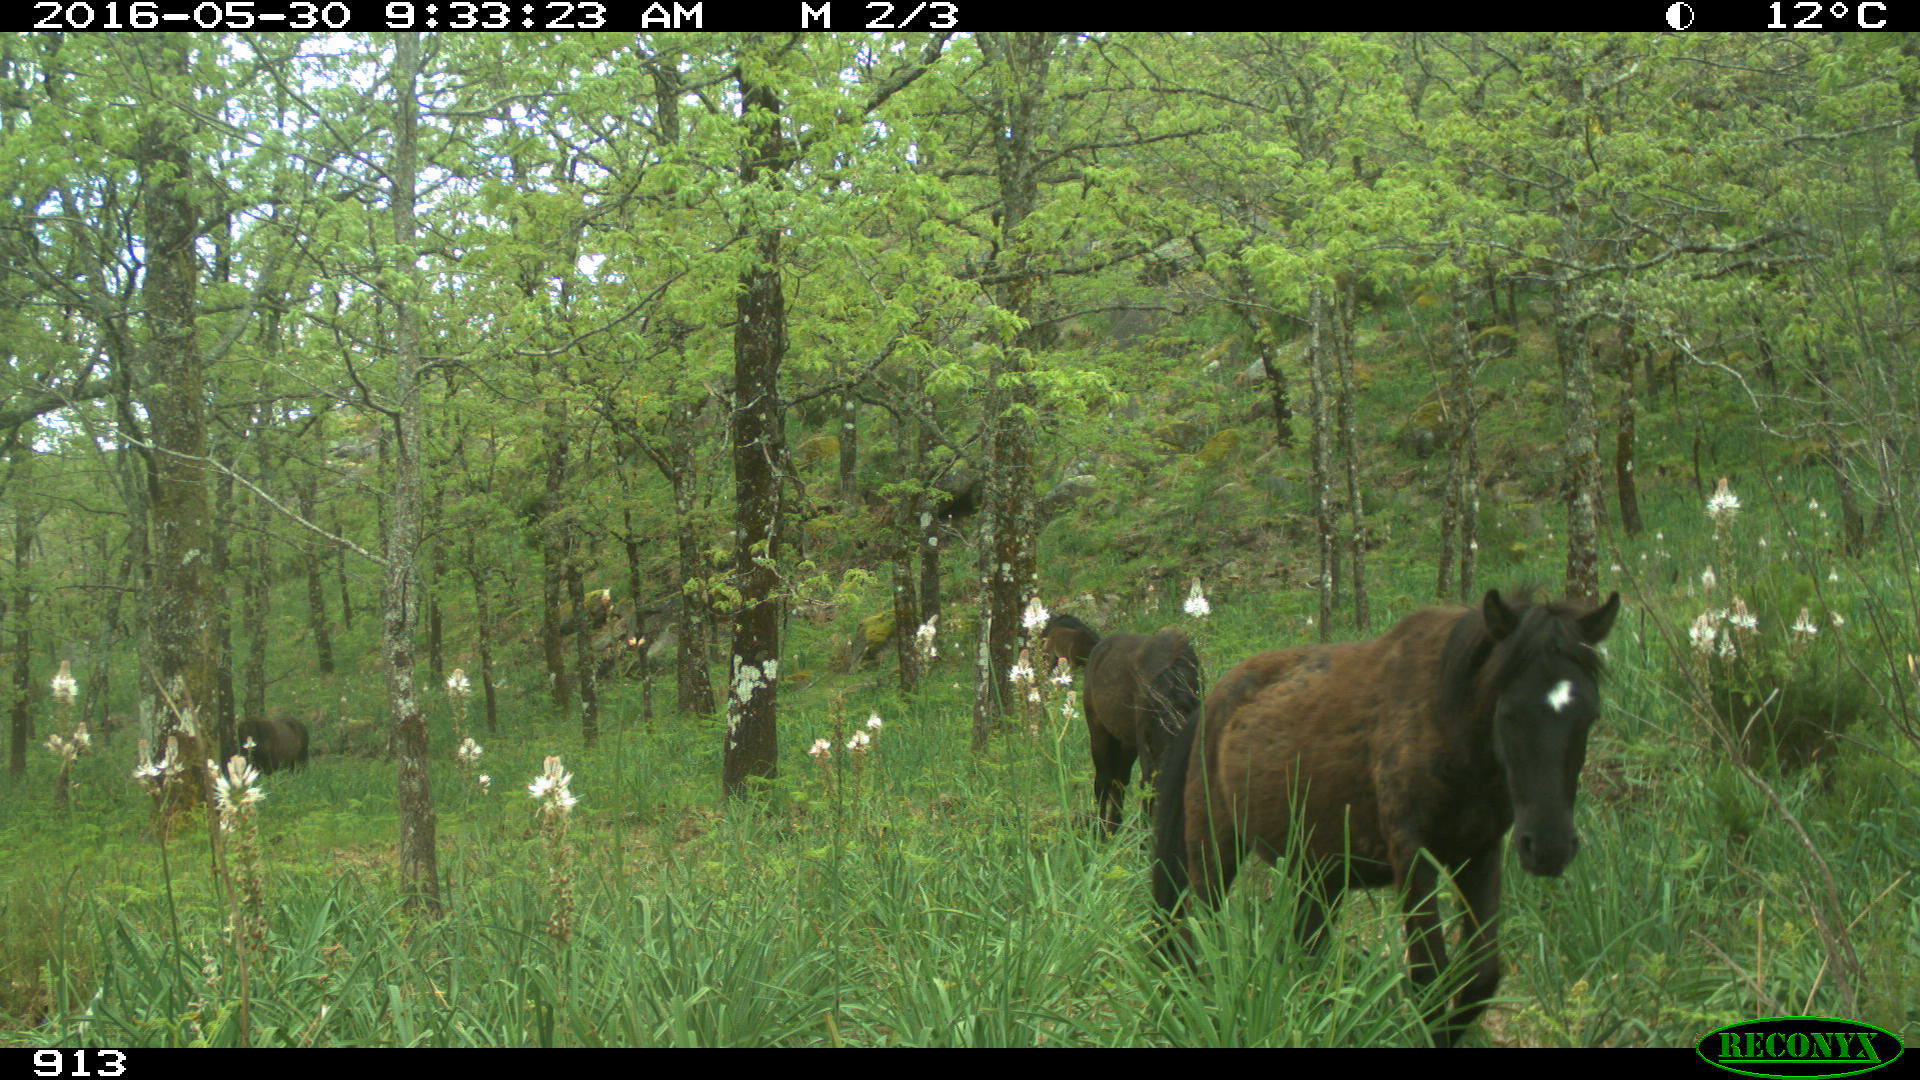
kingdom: Animalia
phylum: Chordata
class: Mammalia
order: Perissodactyla
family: Equidae
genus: Equus
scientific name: Equus caballus
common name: Horse
